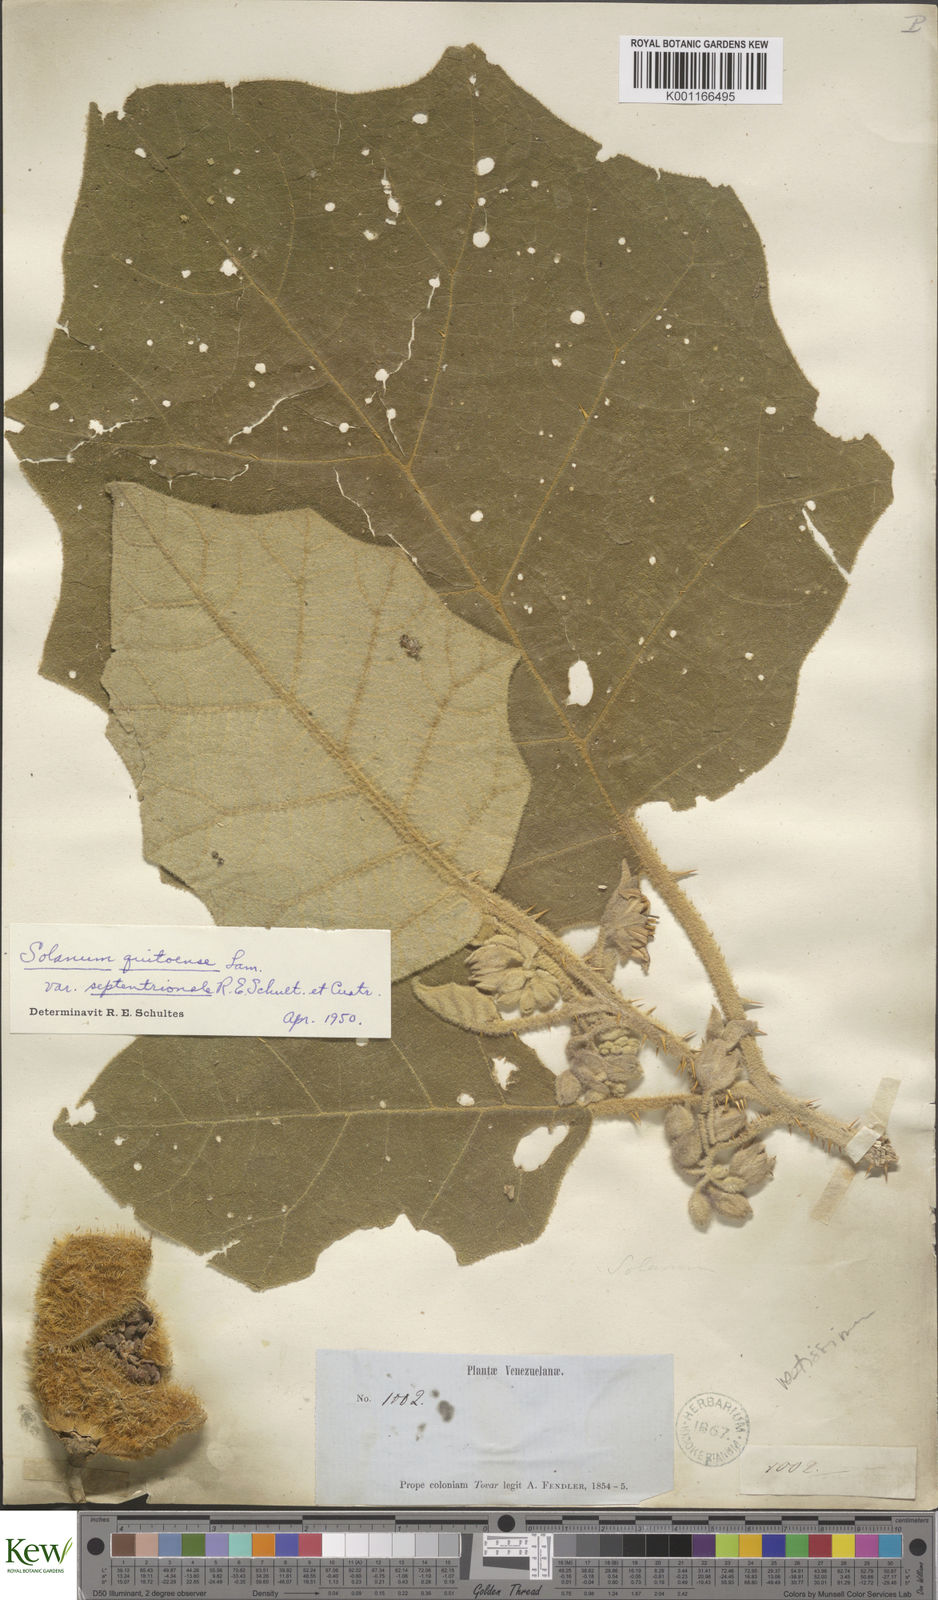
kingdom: Plantae
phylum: Tracheophyta
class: Magnoliopsida
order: Solanales
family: Solanaceae
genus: Solanum
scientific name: Solanum vestissimum
